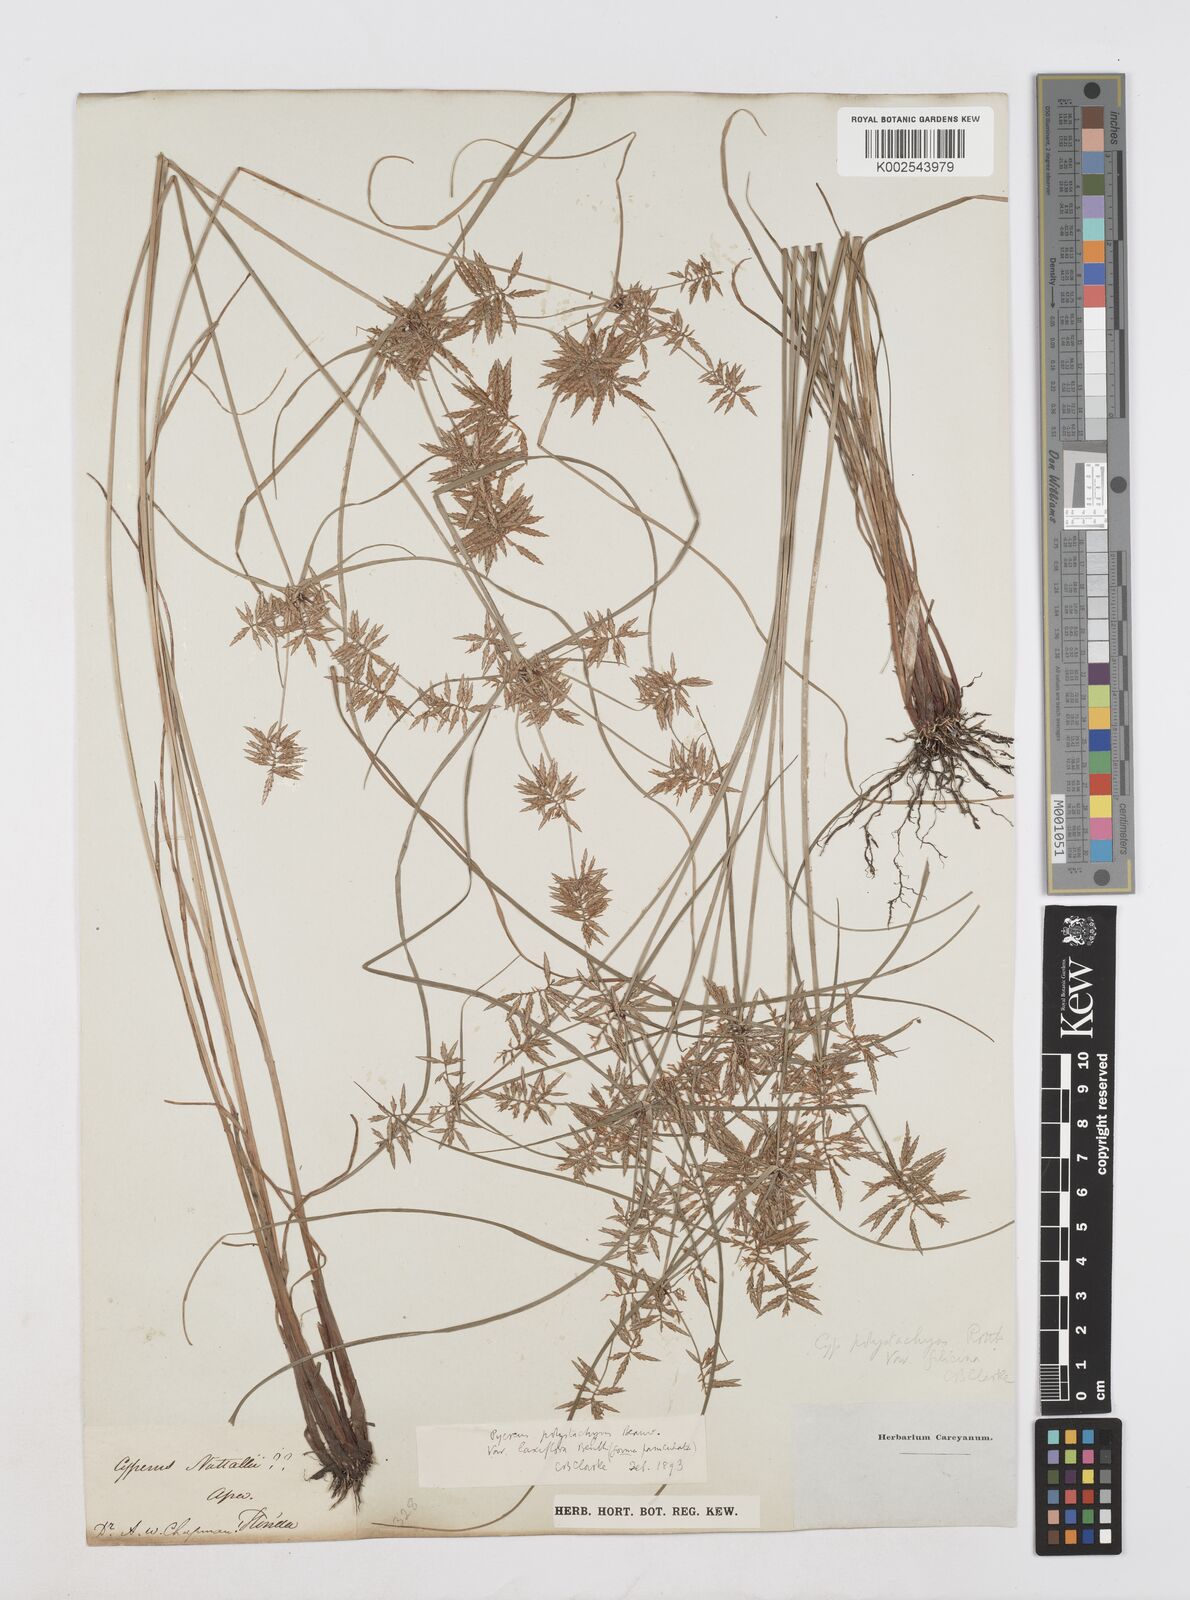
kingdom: Plantae
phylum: Tracheophyta
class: Liliopsida
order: Poales
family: Cyperaceae
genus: Cyperus
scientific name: Cyperus polystachyos
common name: Bunchy flat sedge
